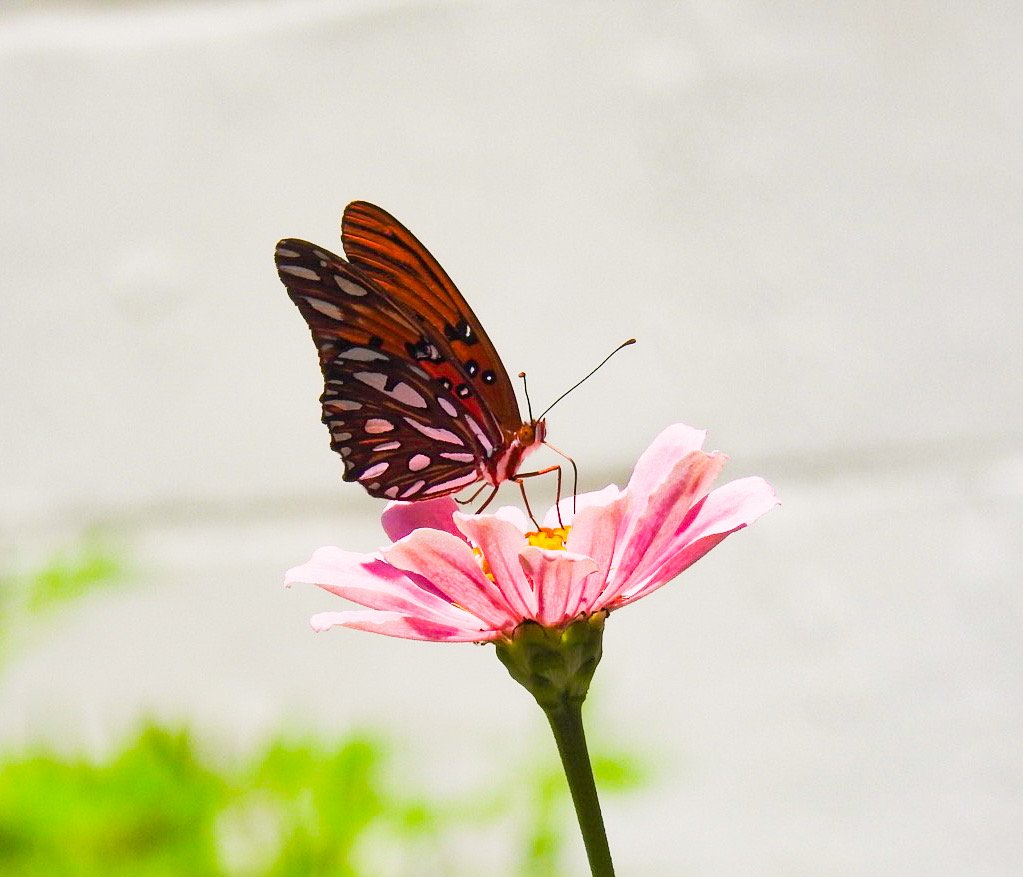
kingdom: Animalia
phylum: Arthropoda
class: Insecta
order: Lepidoptera
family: Nymphalidae
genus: Dione
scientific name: Dione vanillae
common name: Gulf Fritillary
